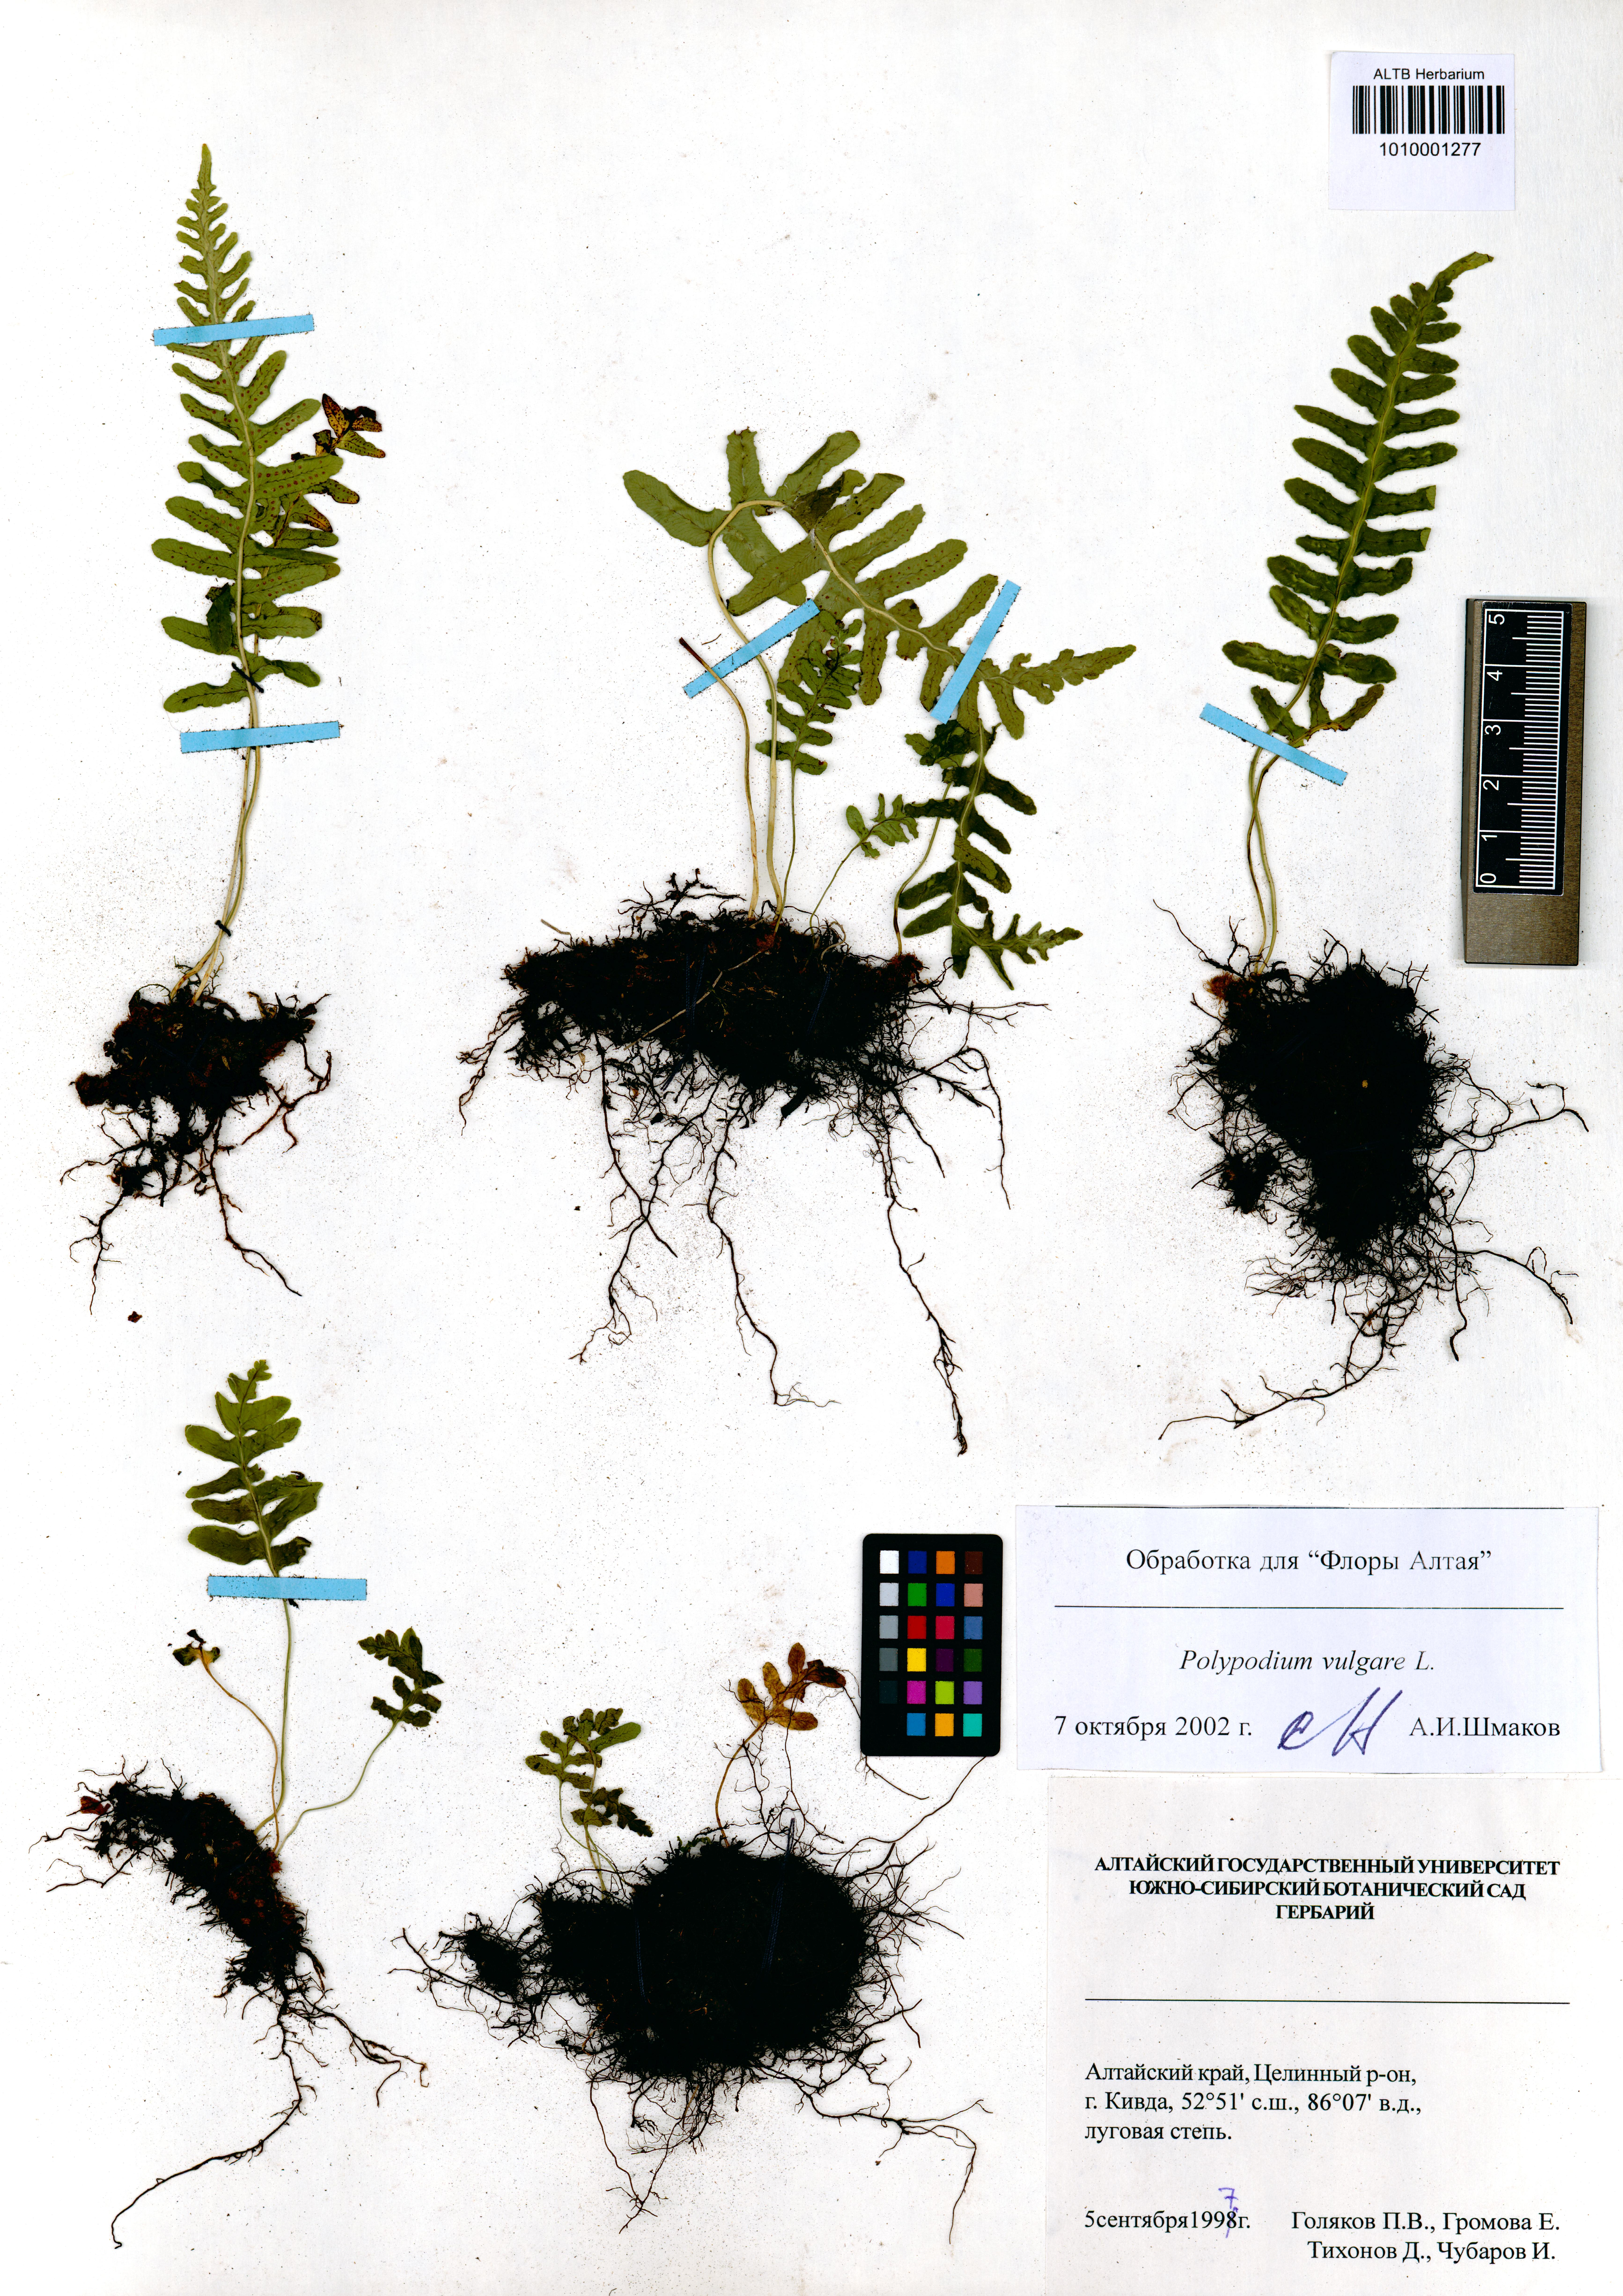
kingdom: Plantae
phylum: Tracheophyta
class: Polypodiopsida
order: Polypodiales
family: Polypodiaceae
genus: Polypodium
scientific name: Polypodium vulgare
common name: Common polypody
